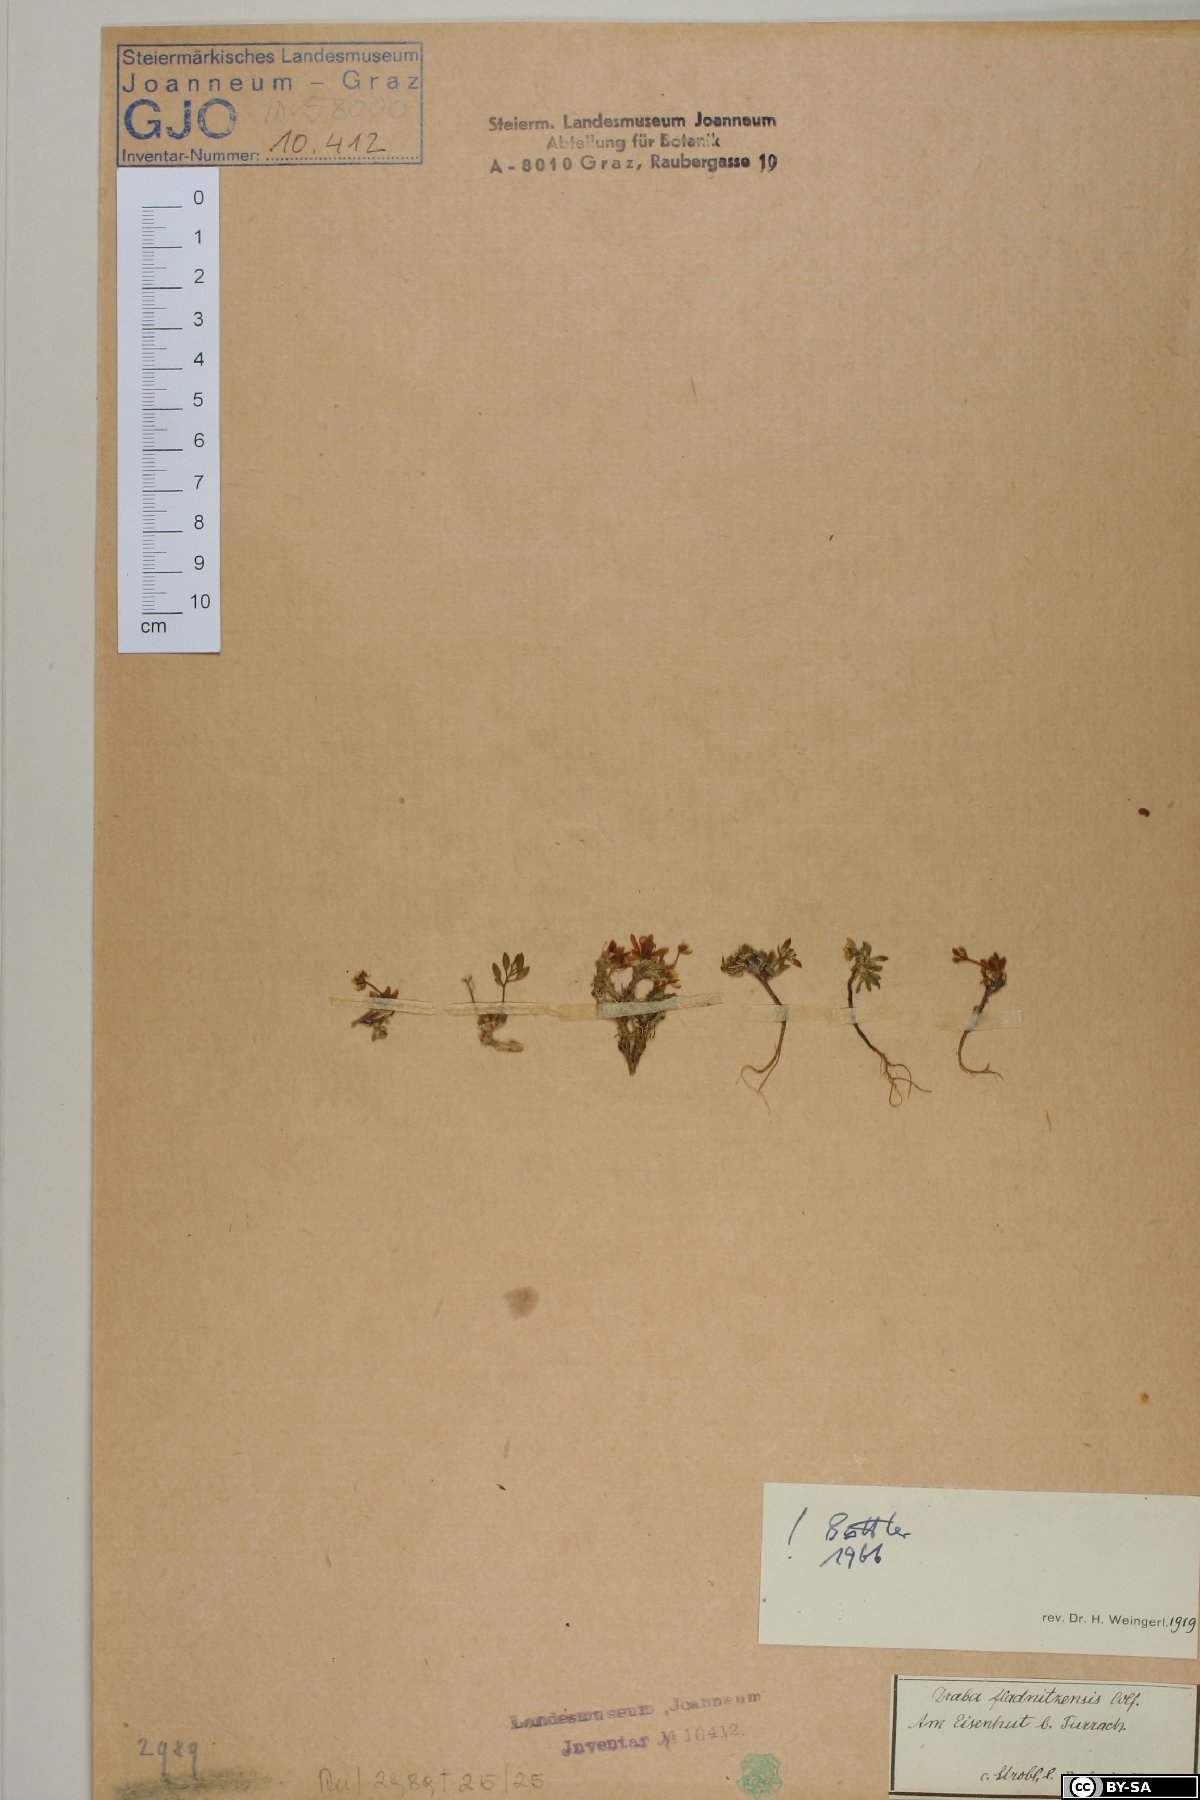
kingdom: Plantae
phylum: Tracheophyta
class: Magnoliopsida
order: Brassicales
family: Brassicaceae
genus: Draba
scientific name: Draba fladnizensis
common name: Austrian draba
